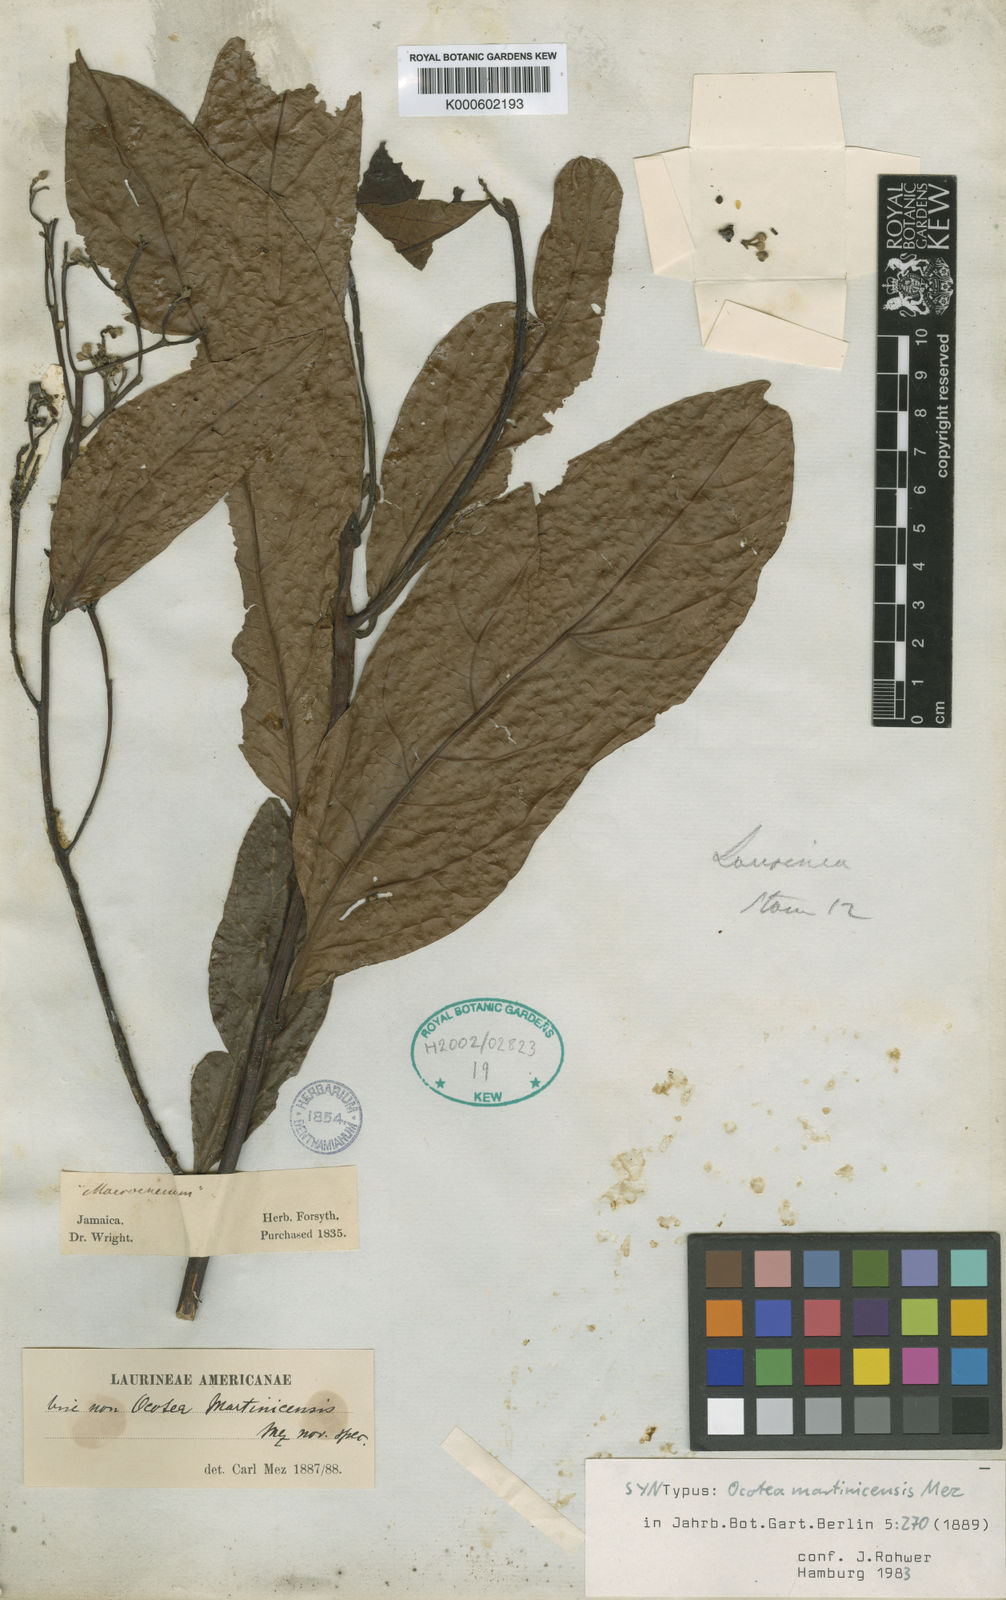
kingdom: Plantae
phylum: Tracheophyta
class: Magnoliopsida
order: Laurales
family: Lauraceae
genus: Ocotea
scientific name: Ocotea martinicensis
